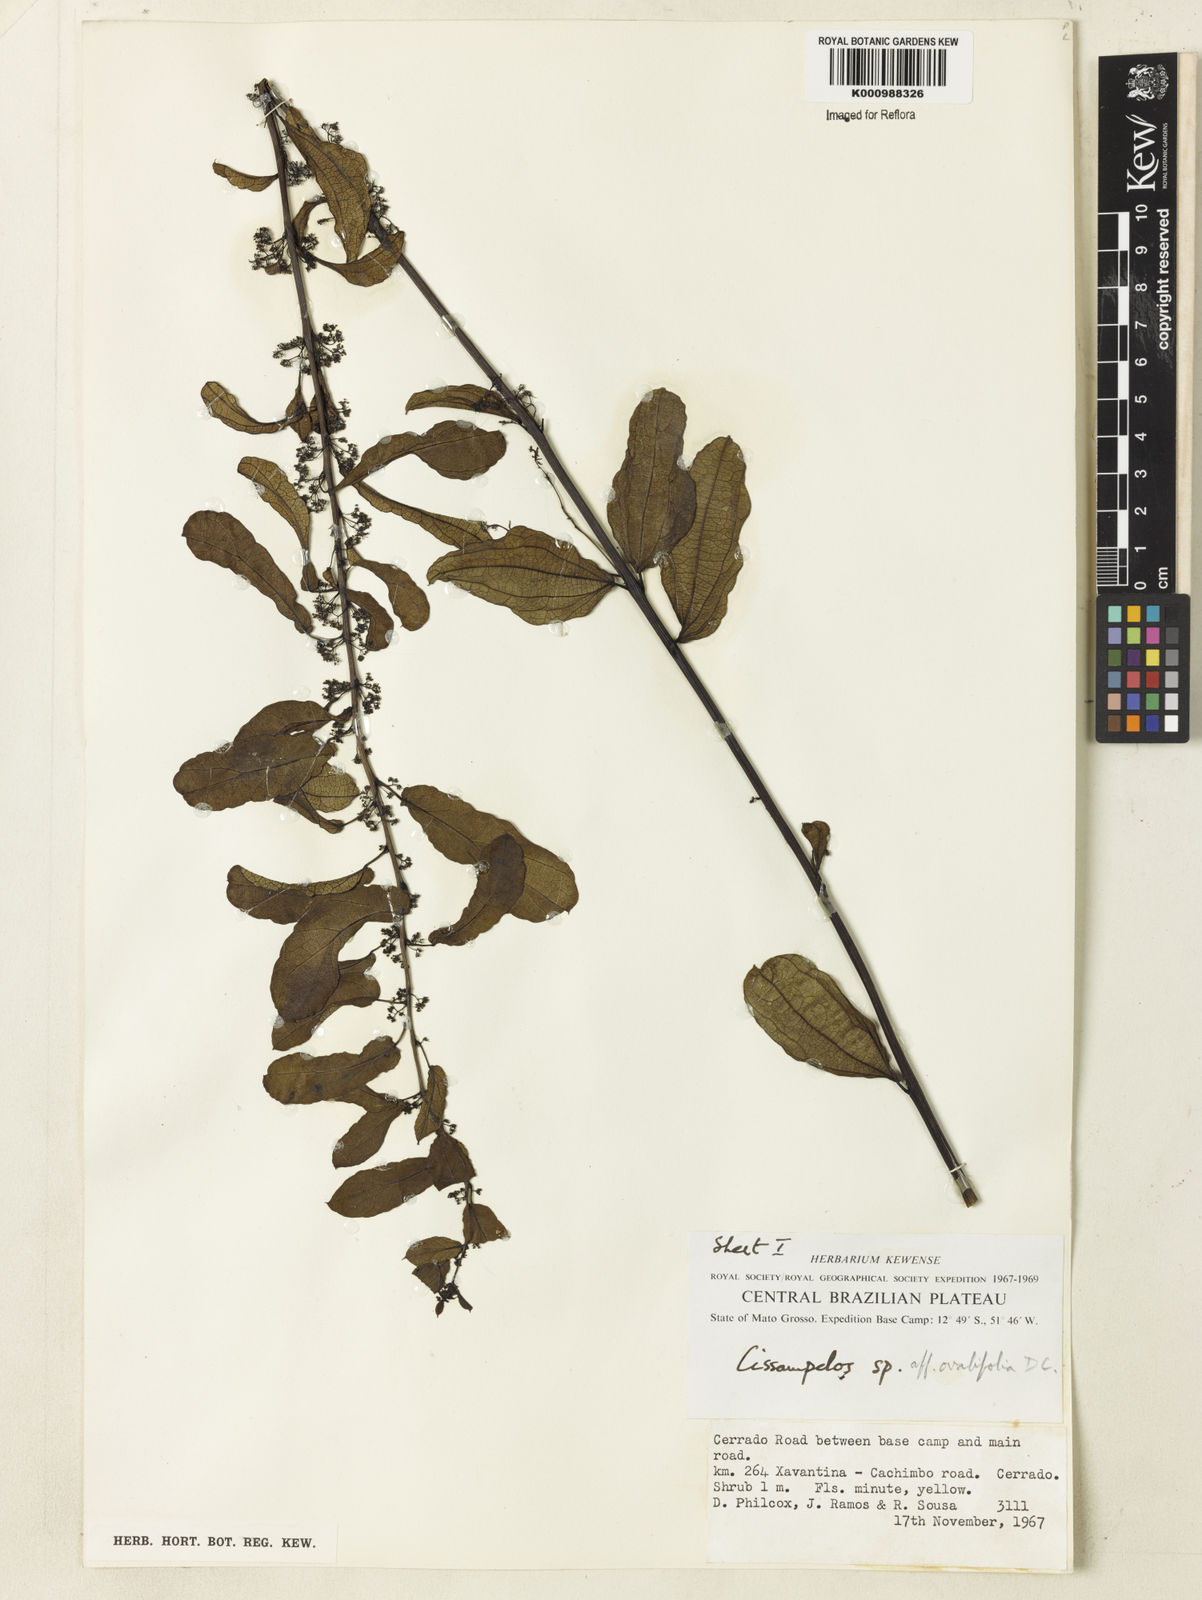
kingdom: Plantae
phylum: Tracheophyta
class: Magnoliopsida
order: Ranunculales
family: Menispermaceae
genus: Cissampelos
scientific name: Cissampelos ovalifolia
